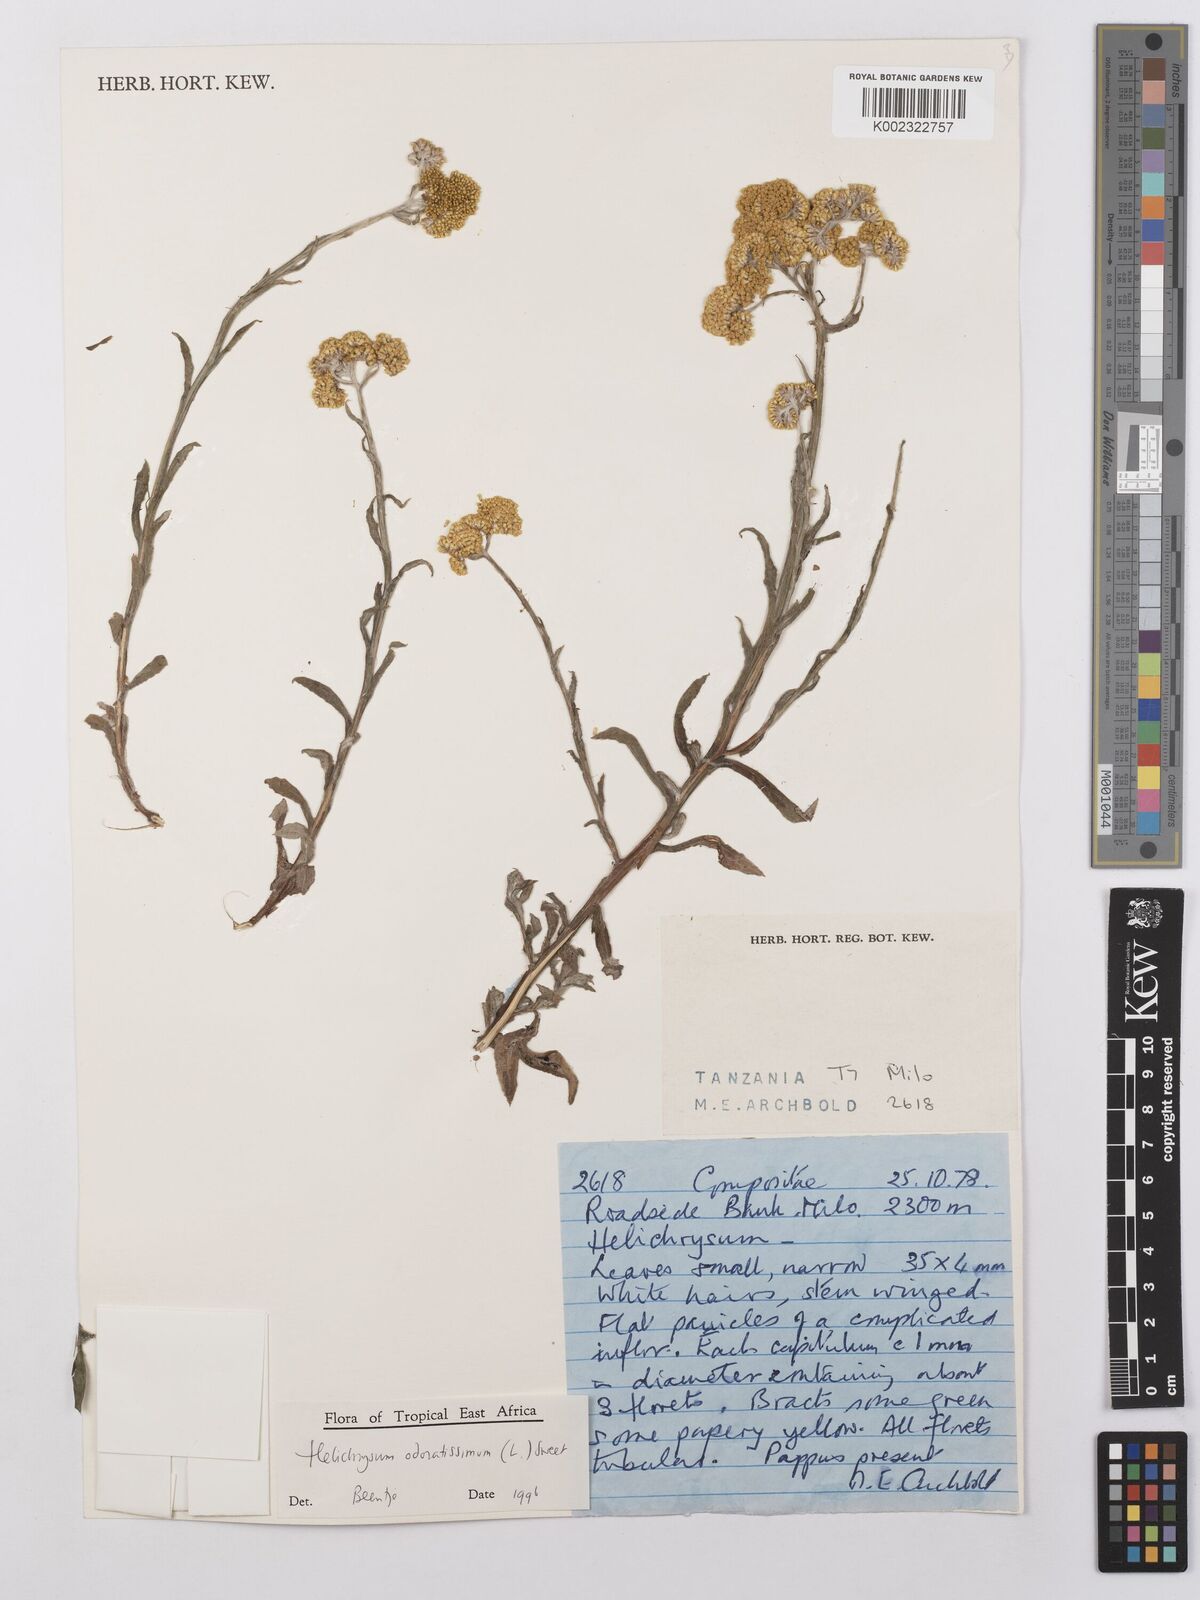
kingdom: Plantae
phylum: Tracheophyta
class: Magnoliopsida
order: Asterales
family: Asteraceae
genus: Helichrysum
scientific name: Helichrysum odoratissimum
